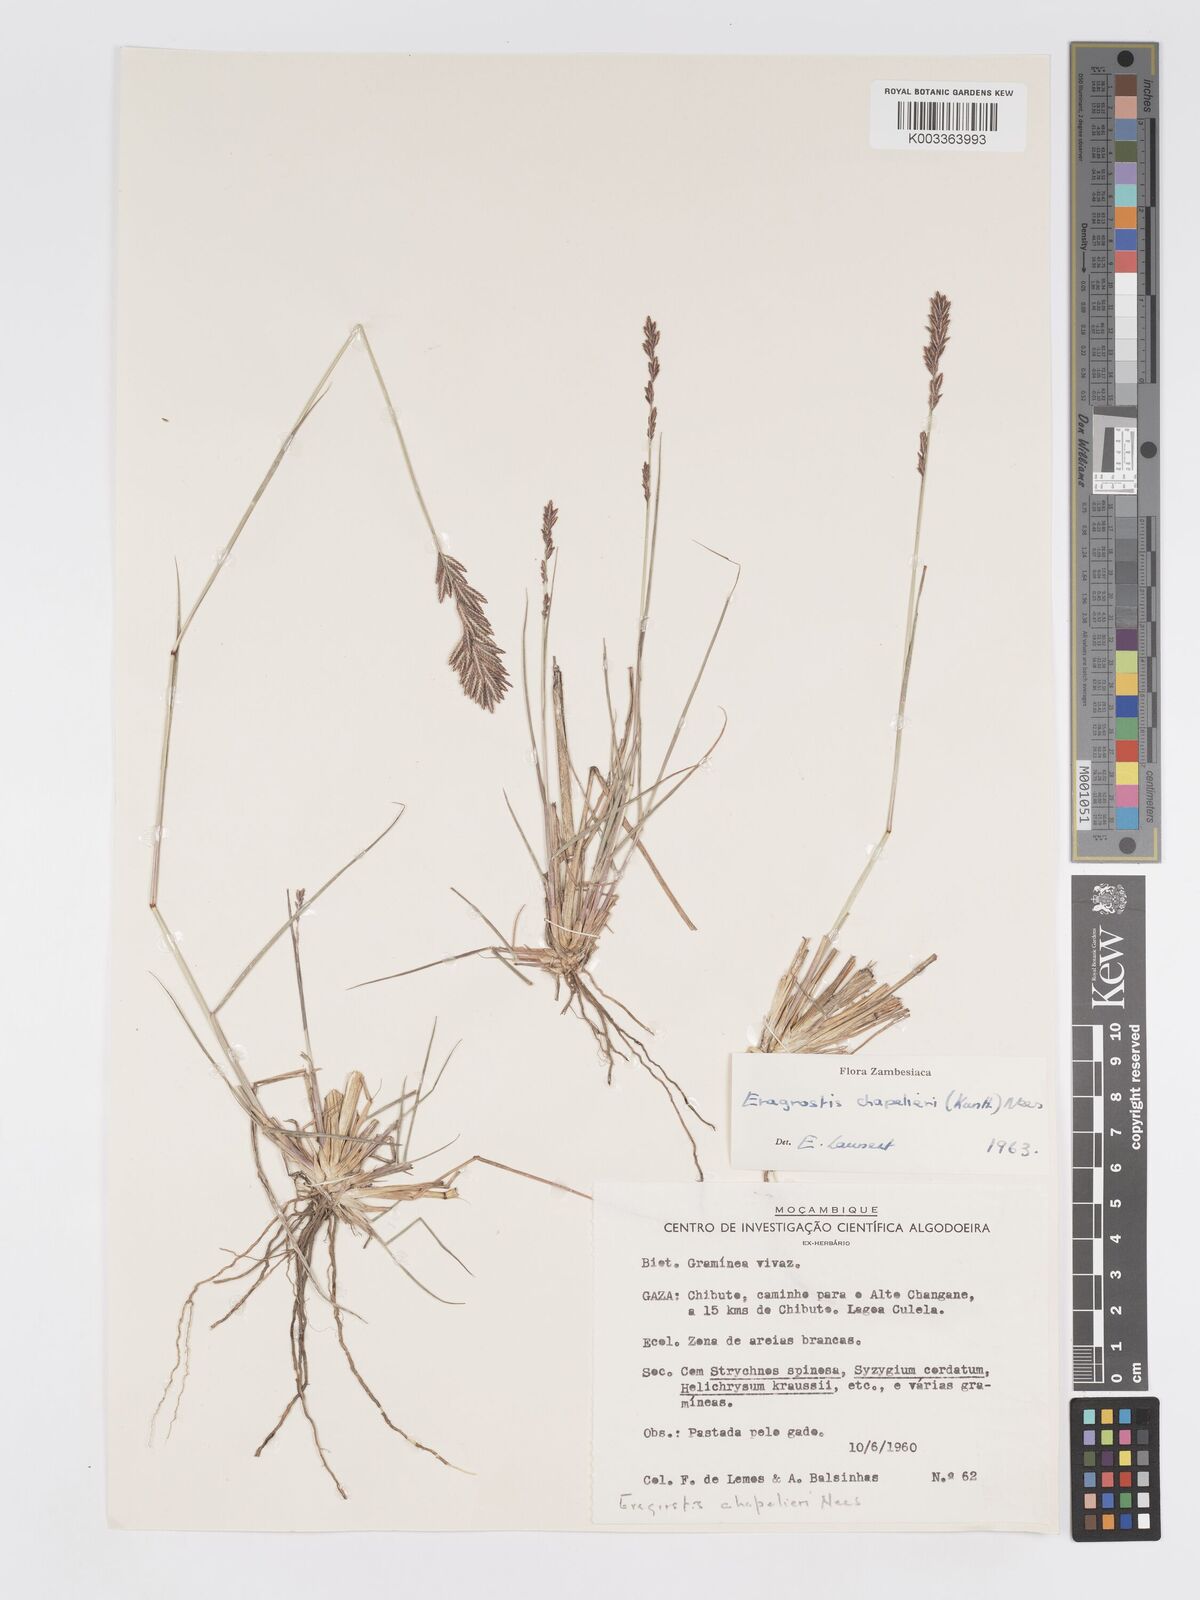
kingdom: Plantae
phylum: Tracheophyta
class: Liliopsida
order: Poales
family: Poaceae
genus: Eragrostis
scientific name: Eragrostis chapelieri
